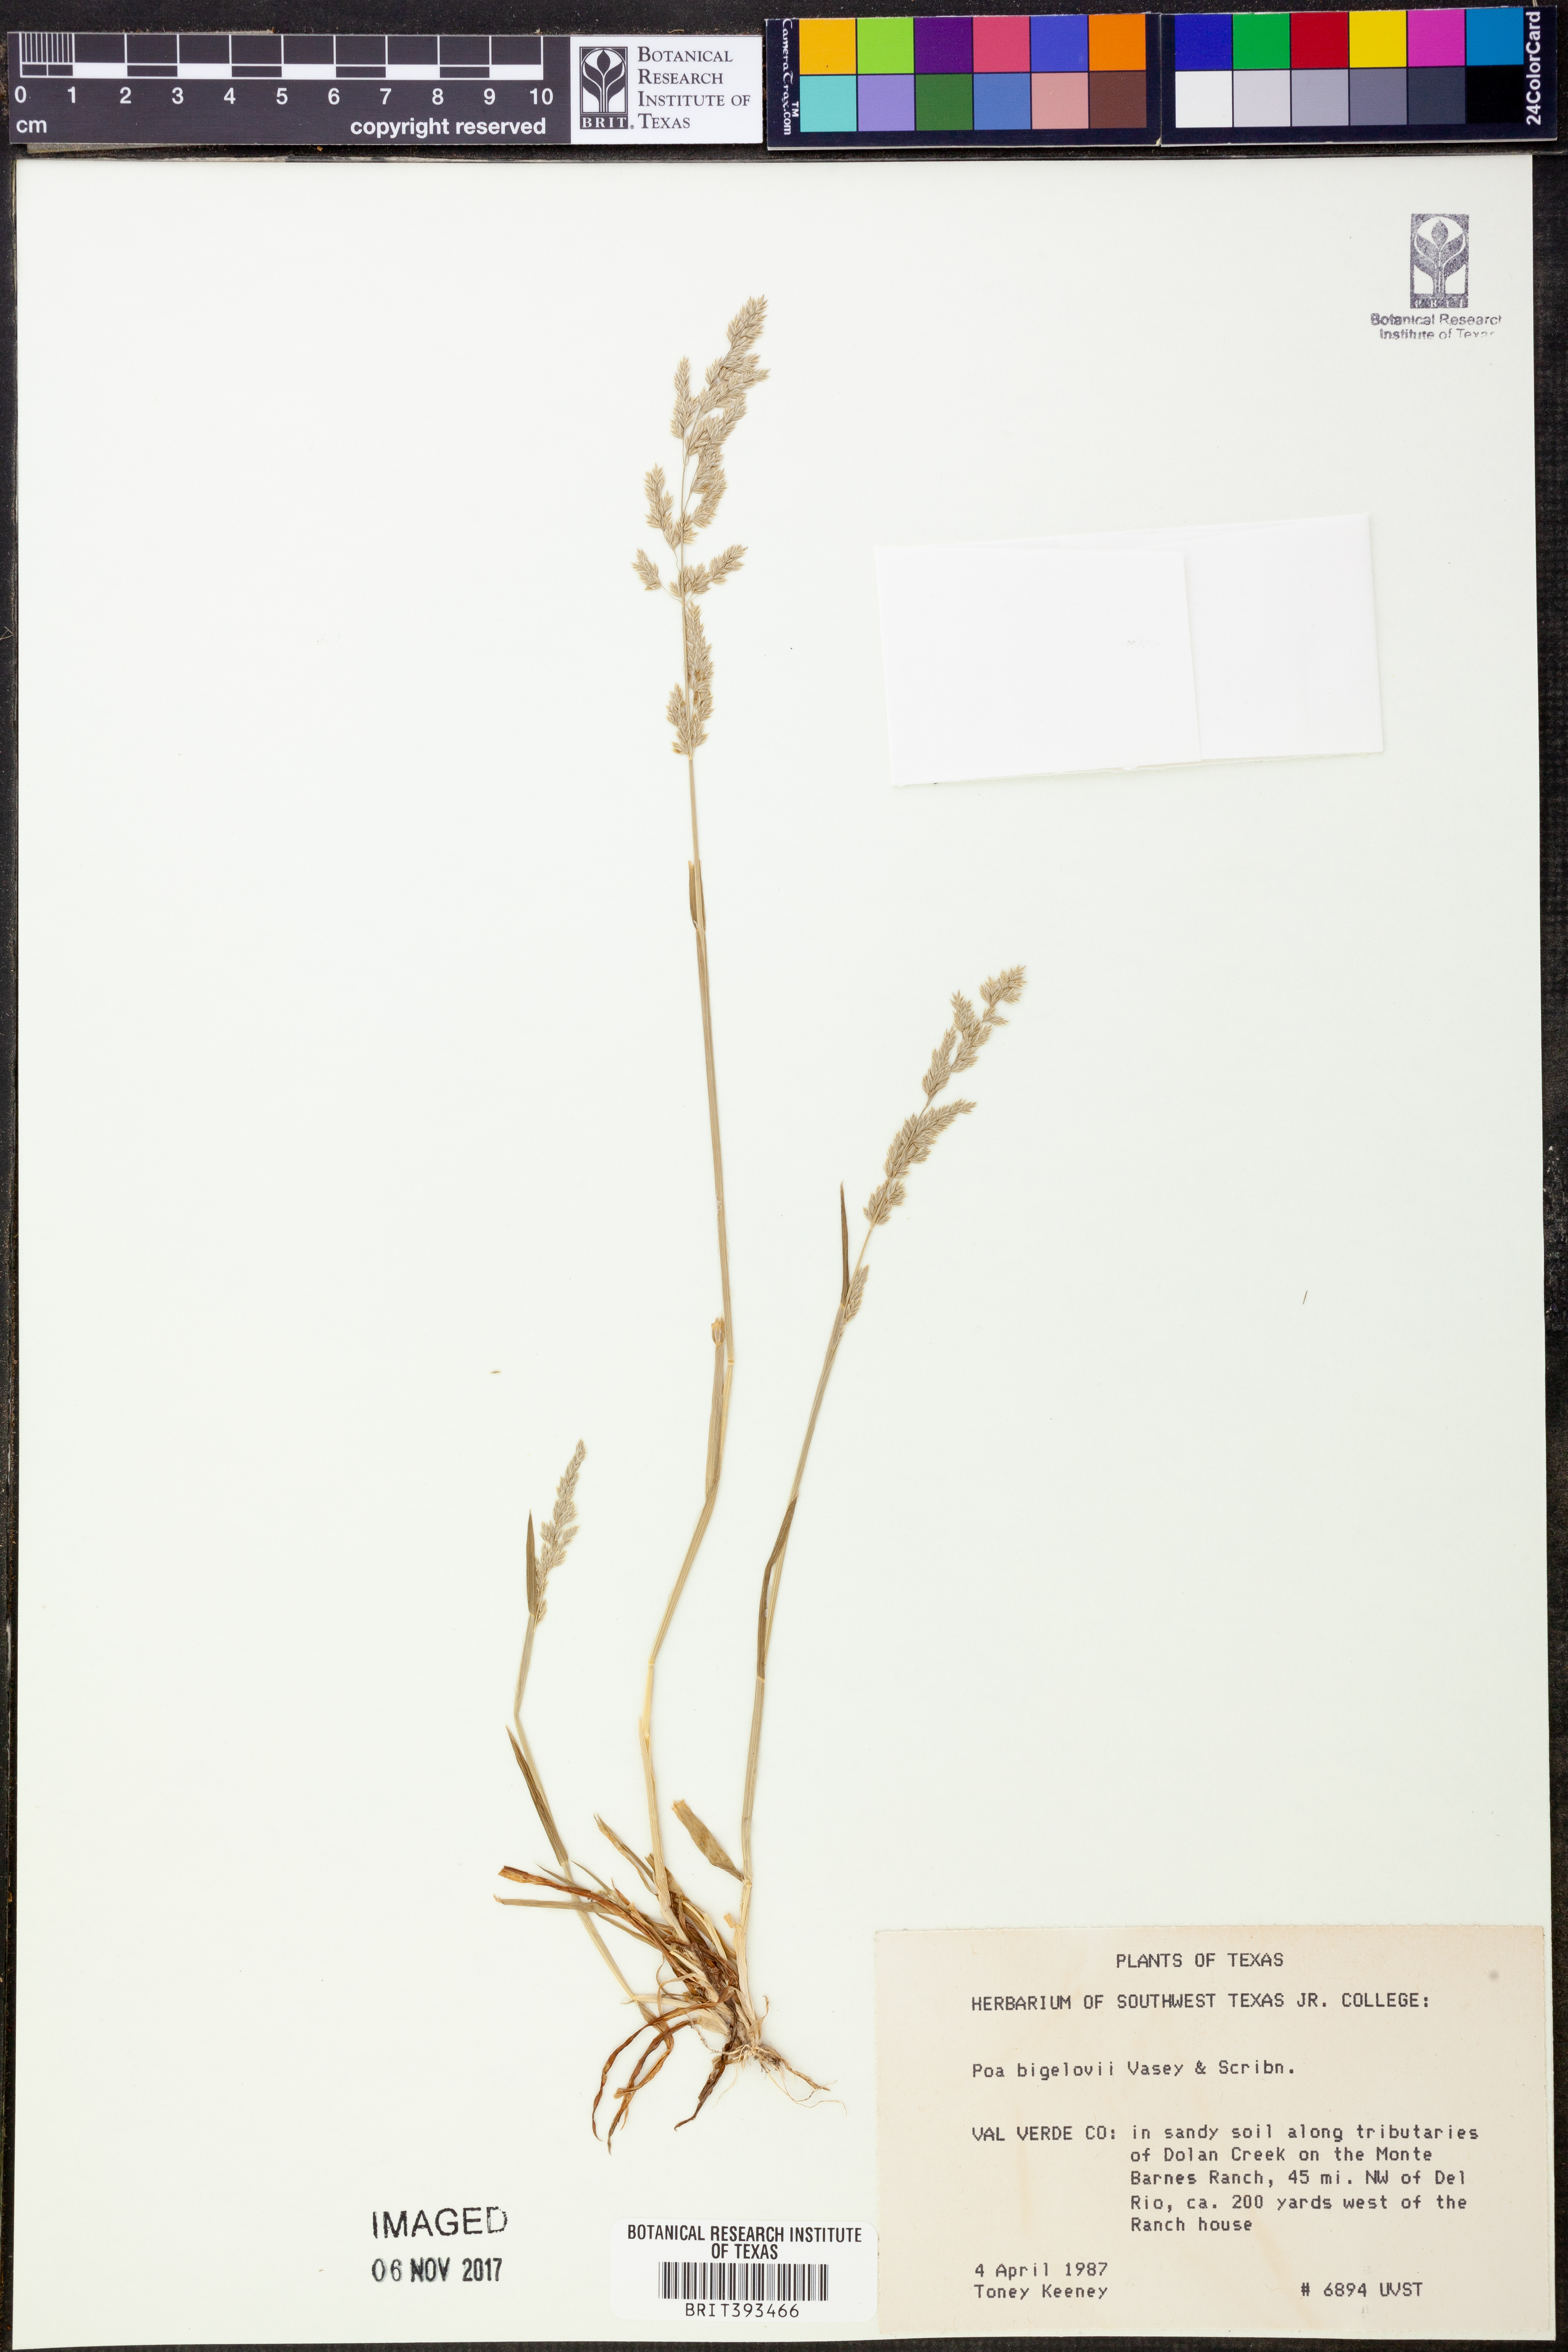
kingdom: Plantae
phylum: Tracheophyta
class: Liliopsida
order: Poales
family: Poaceae
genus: Poa
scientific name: Poa bigelovii
